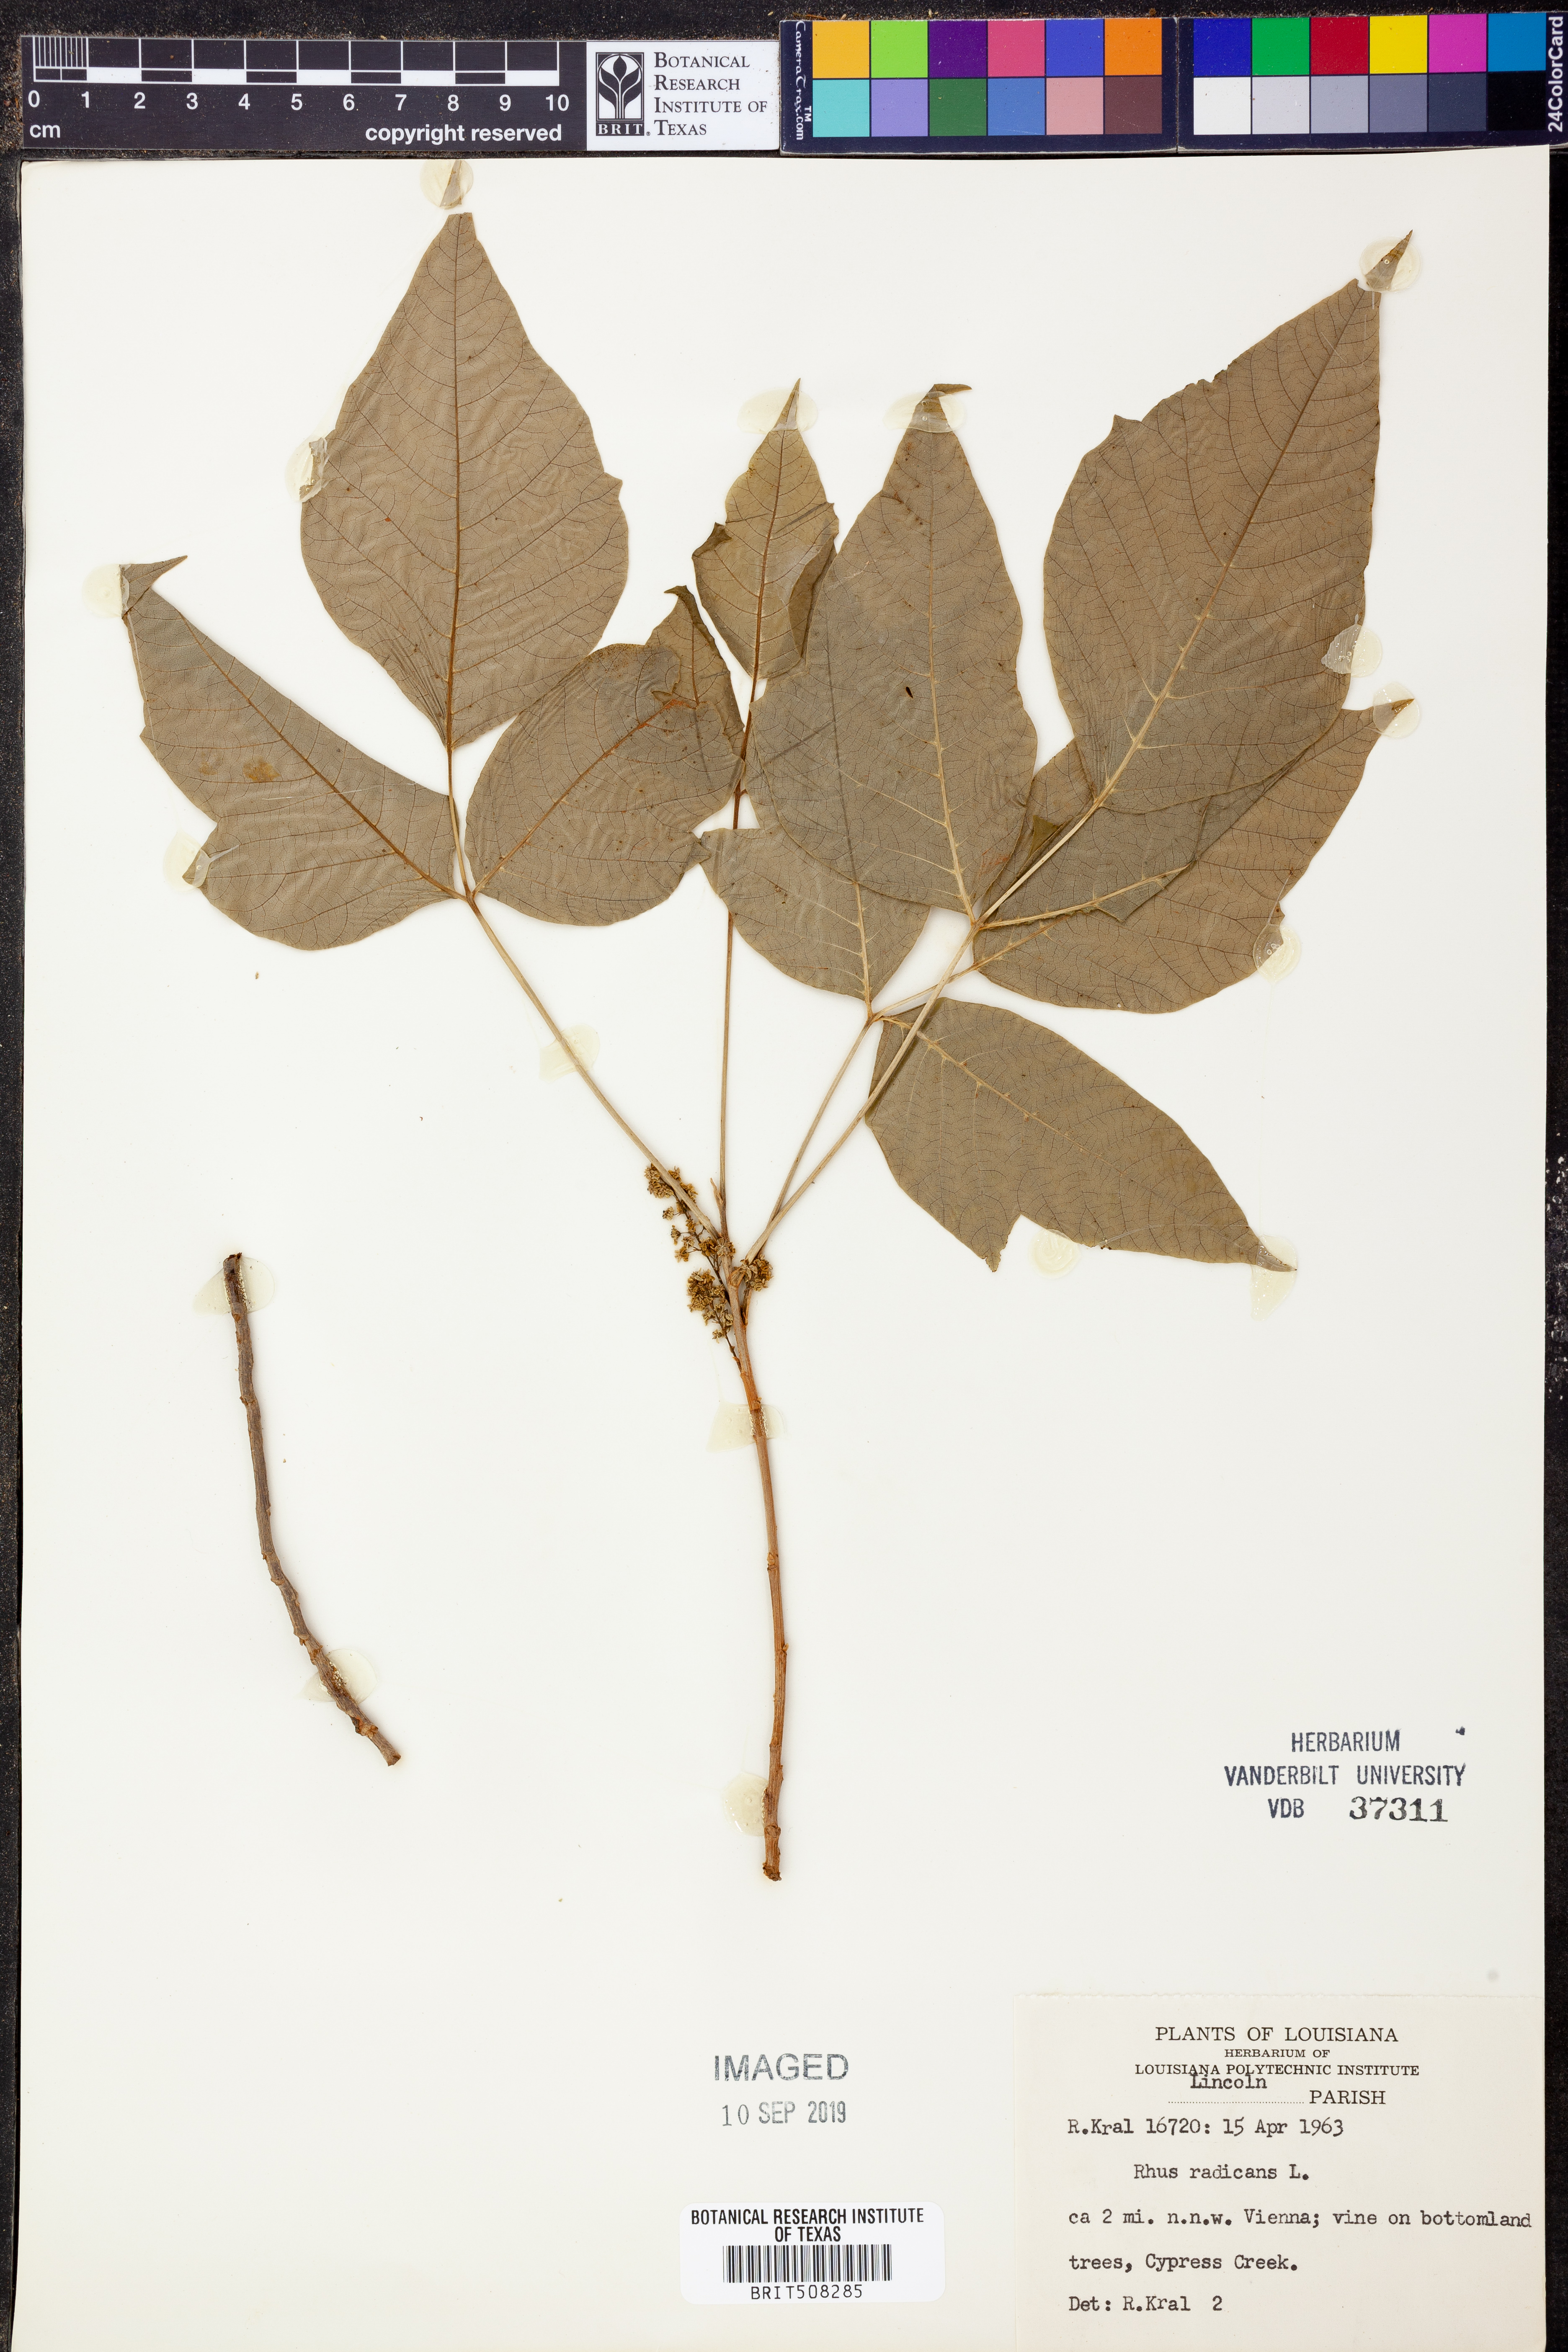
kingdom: Plantae
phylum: Tracheophyta
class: Magnoliopsida
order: Sapindales
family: Anacardiaceae
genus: Toxicodendron
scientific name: Toxicodendron radicans
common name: Poison ivy
